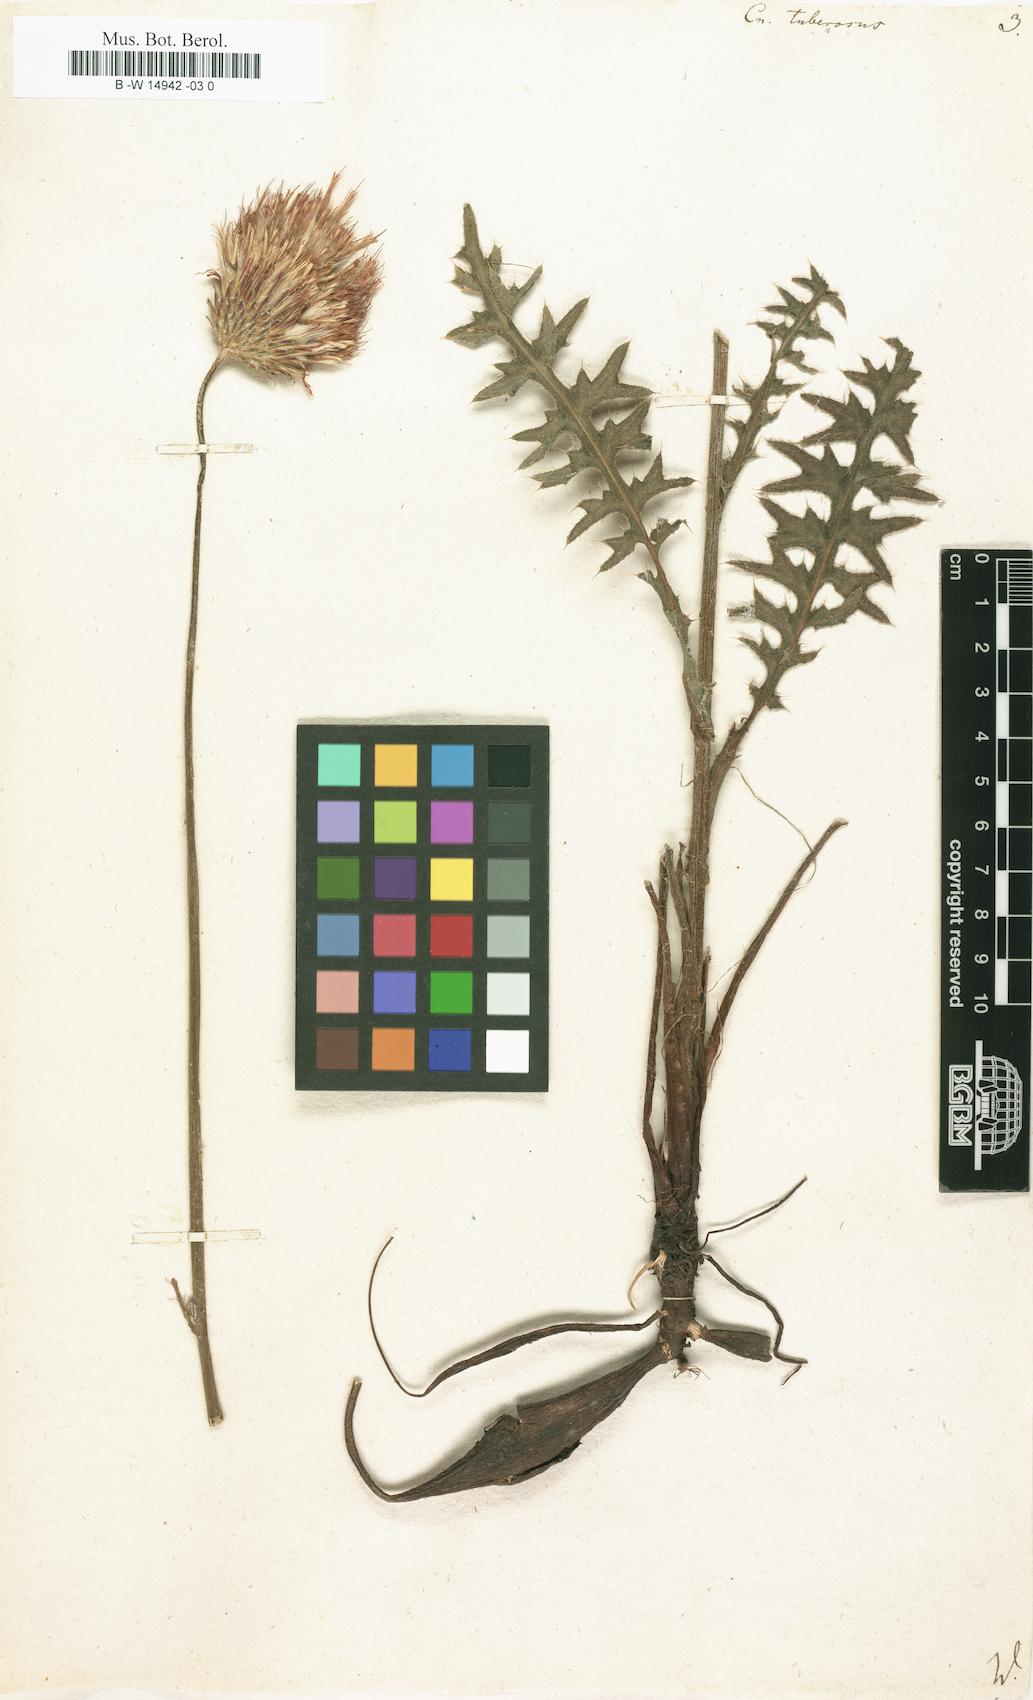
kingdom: Plantae
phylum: Tracheophyta
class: Magnoliopsida
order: Asterales
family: Asteraceae
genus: Cirsium
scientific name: Cirsium Cnicus tuberosus
